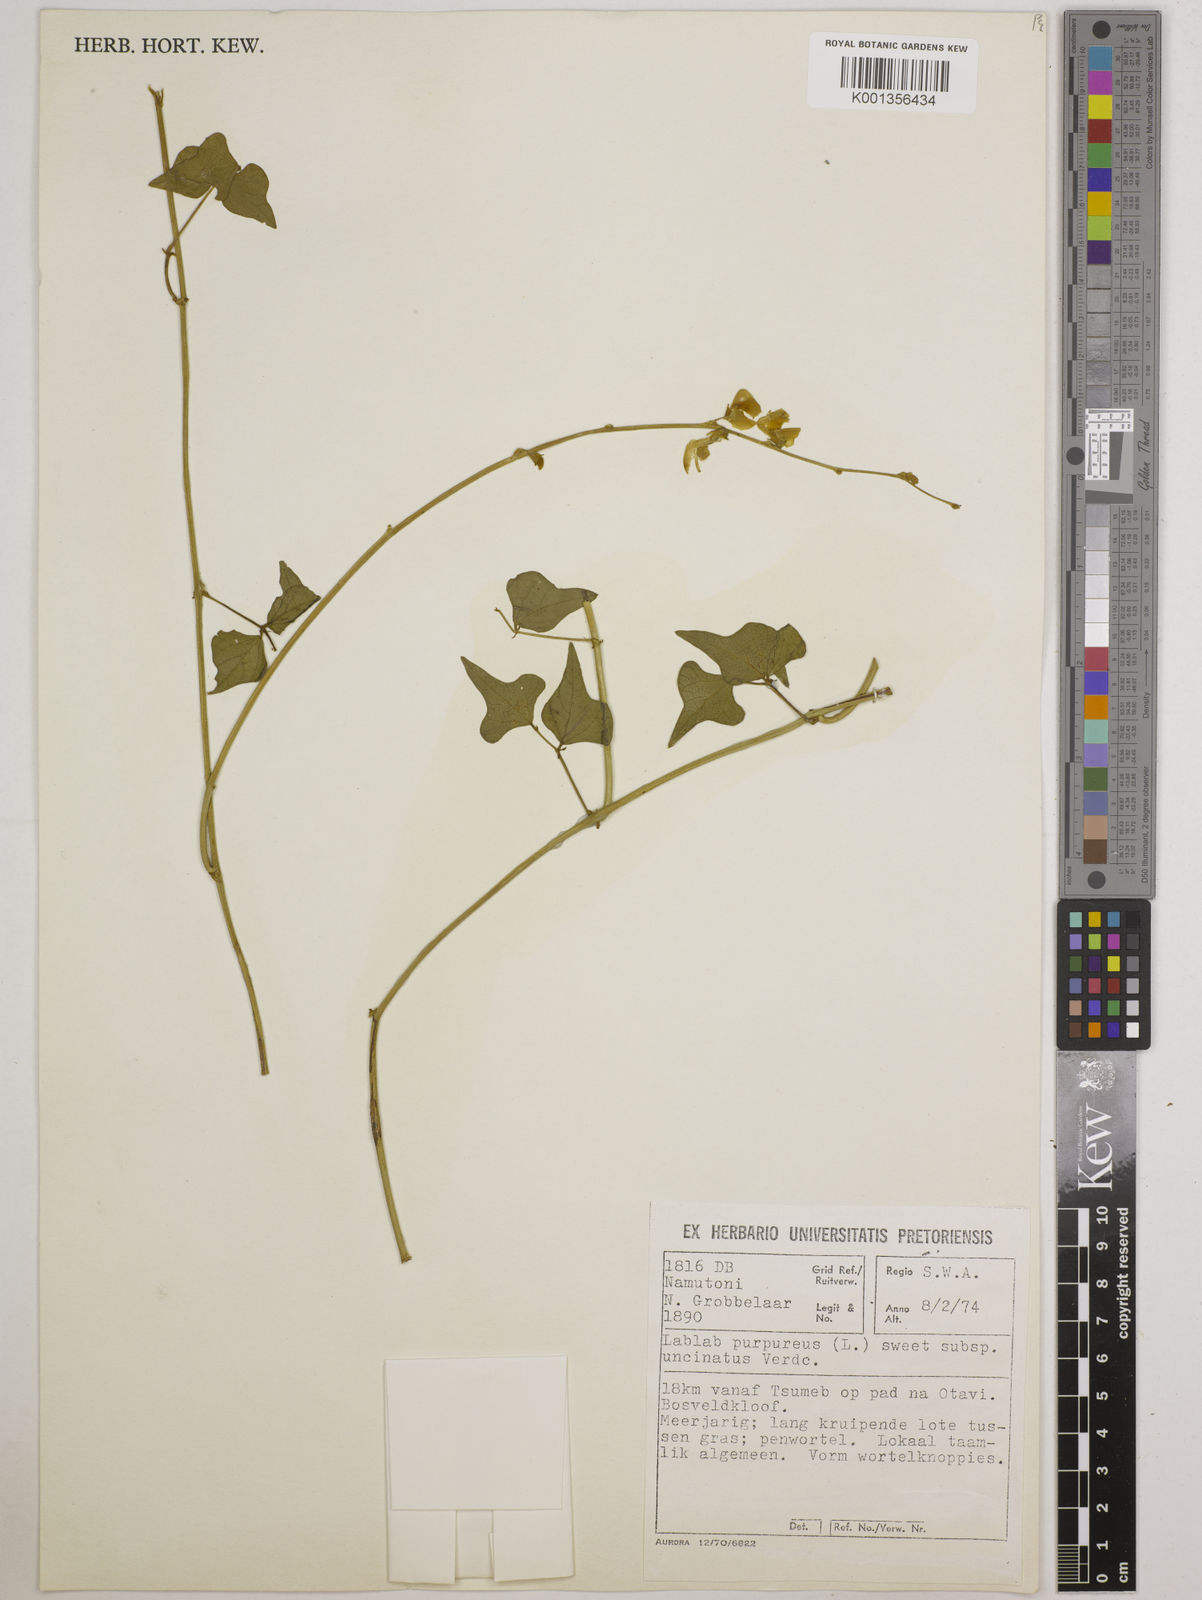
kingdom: Plantae
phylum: Tracheophyta
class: Magnoliopsida
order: Fabales
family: Fabaceae
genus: Lablab
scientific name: Lablab purpureus
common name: Lablab-bean
